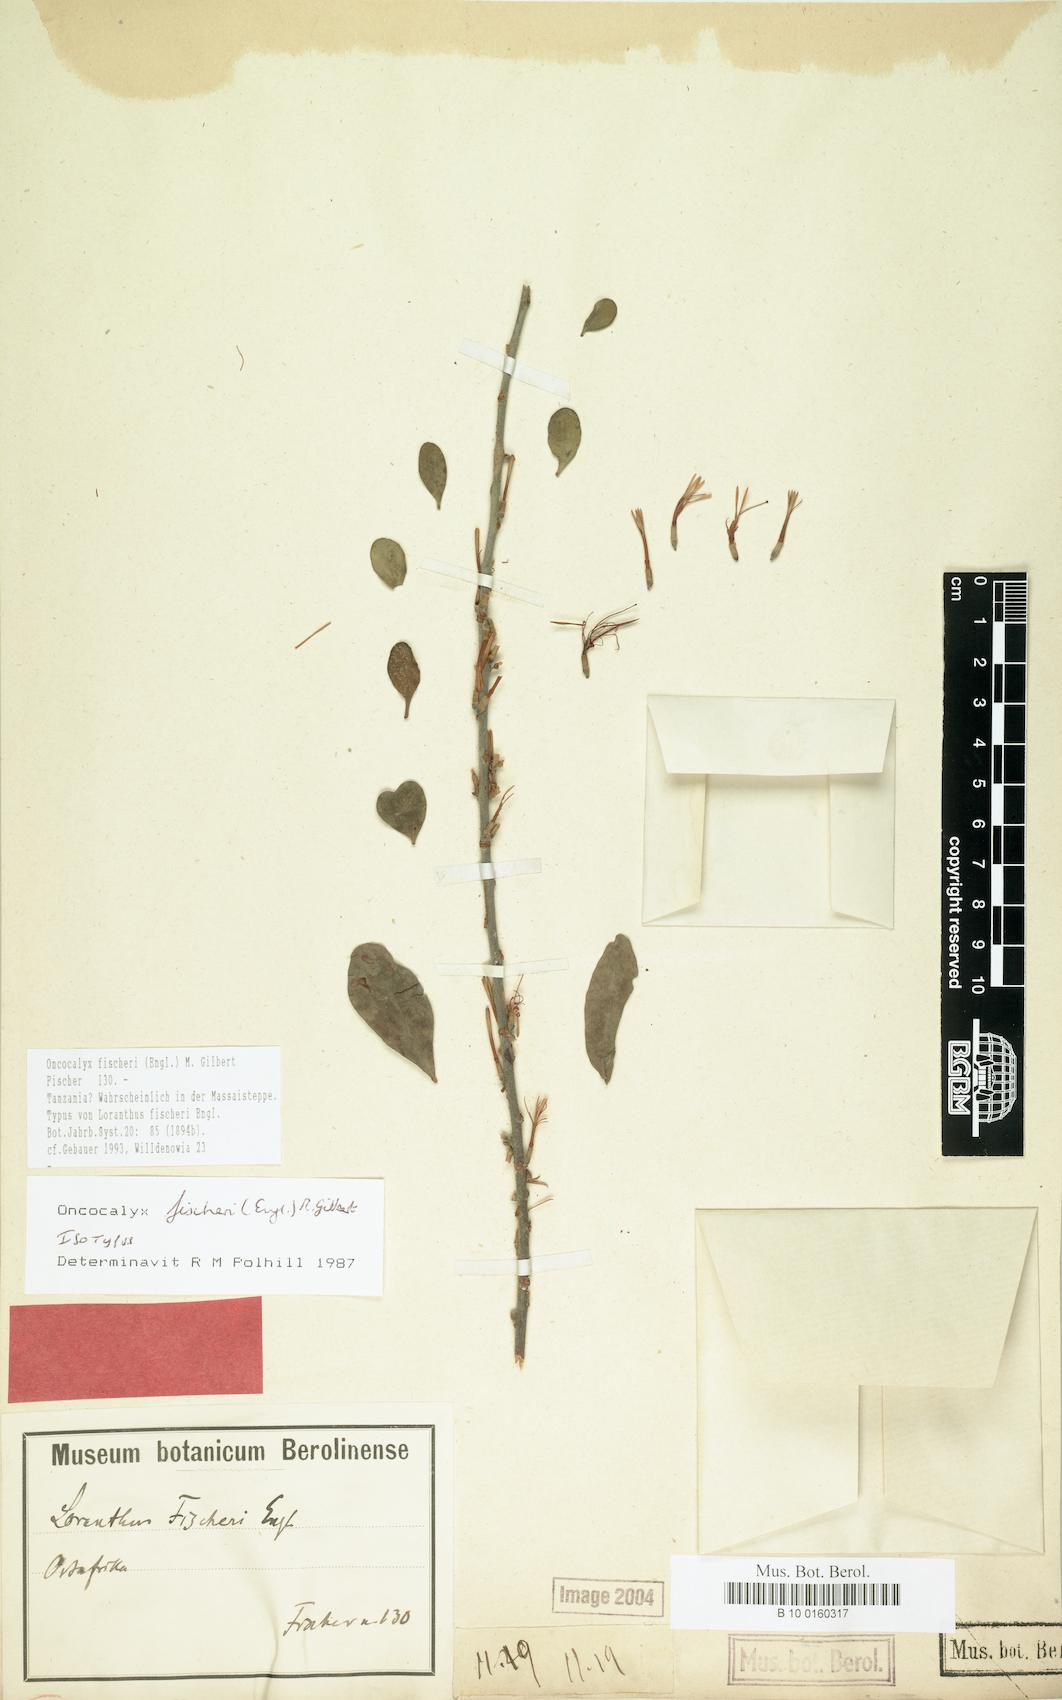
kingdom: Plantae
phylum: Tracheophyta
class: Magnoliopsida
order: Santalales
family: Loranthaceae
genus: Oncocalyx
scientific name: Oncocalyx fischeri
